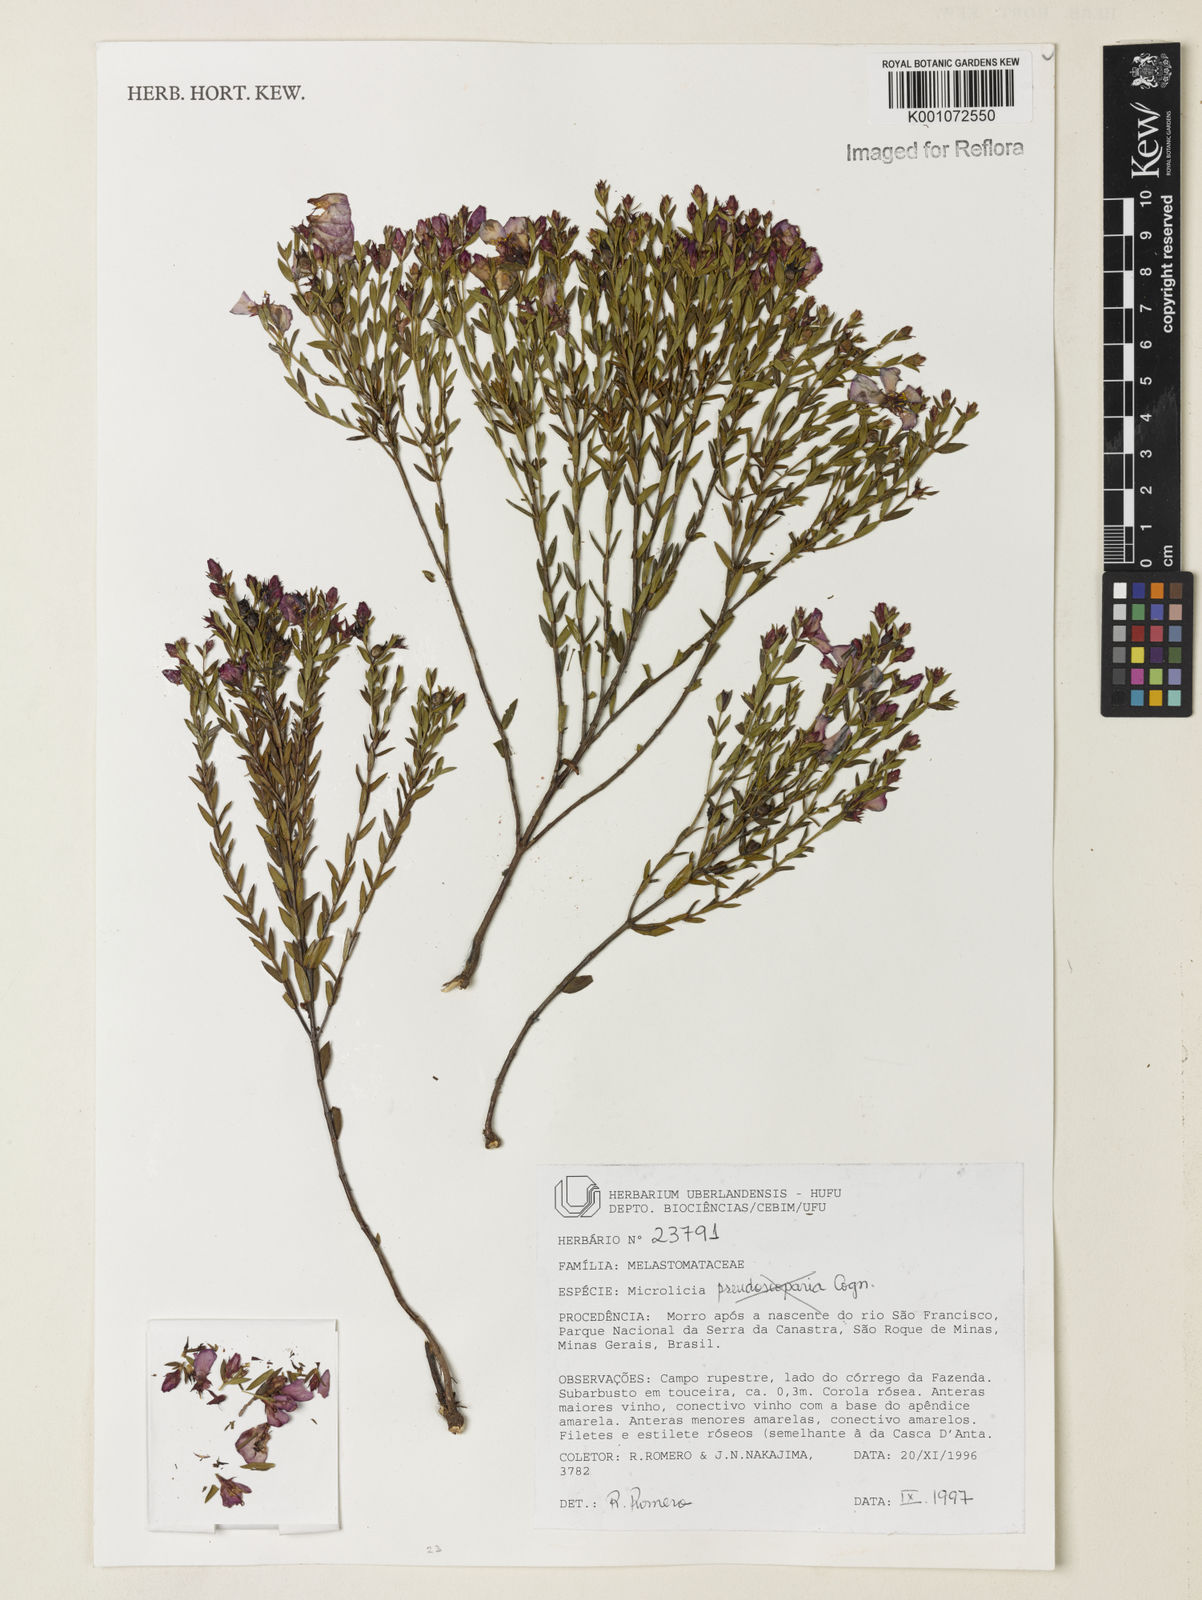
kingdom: Plantae
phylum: Tracheophyta
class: Magnoliopsida
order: Myrtales
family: Melastomataceae
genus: Microlicia
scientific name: Microlicia
